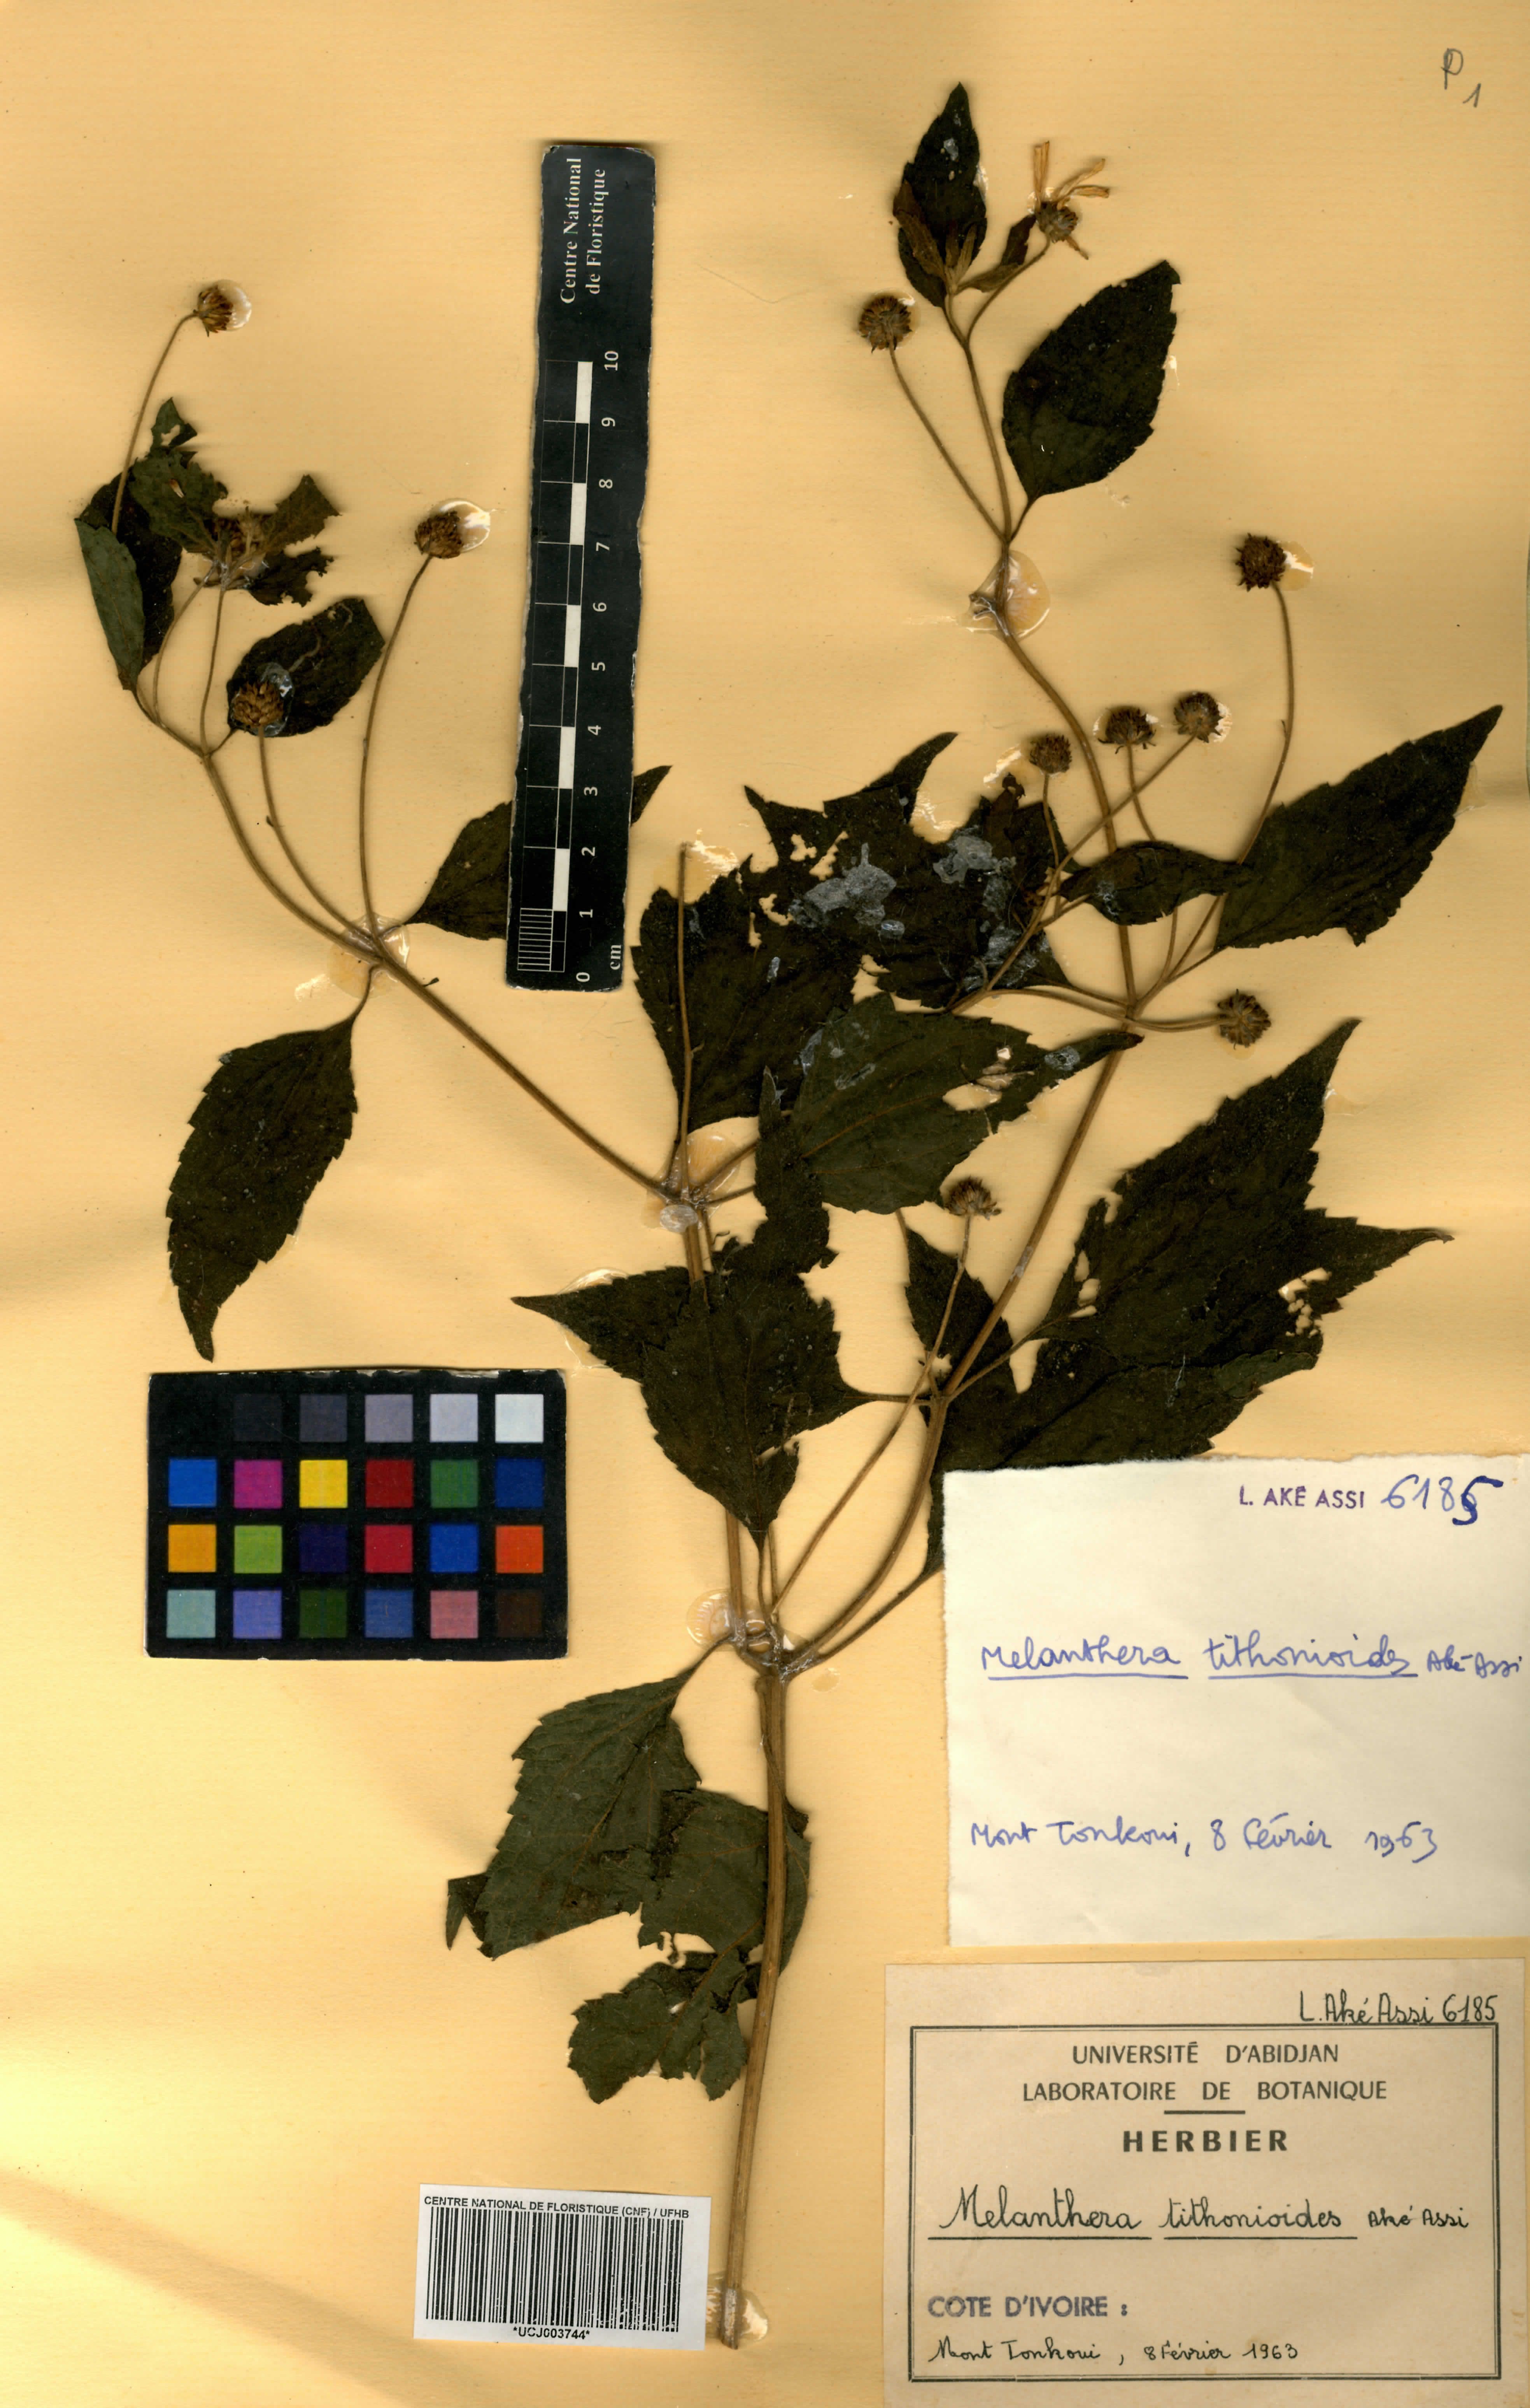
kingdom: Plantae
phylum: Tracheophyta
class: Magnoliopsida
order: Asterales
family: Asteraceae
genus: Lipotriche
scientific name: Lipotriche tithonioides
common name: Simandou daisy
